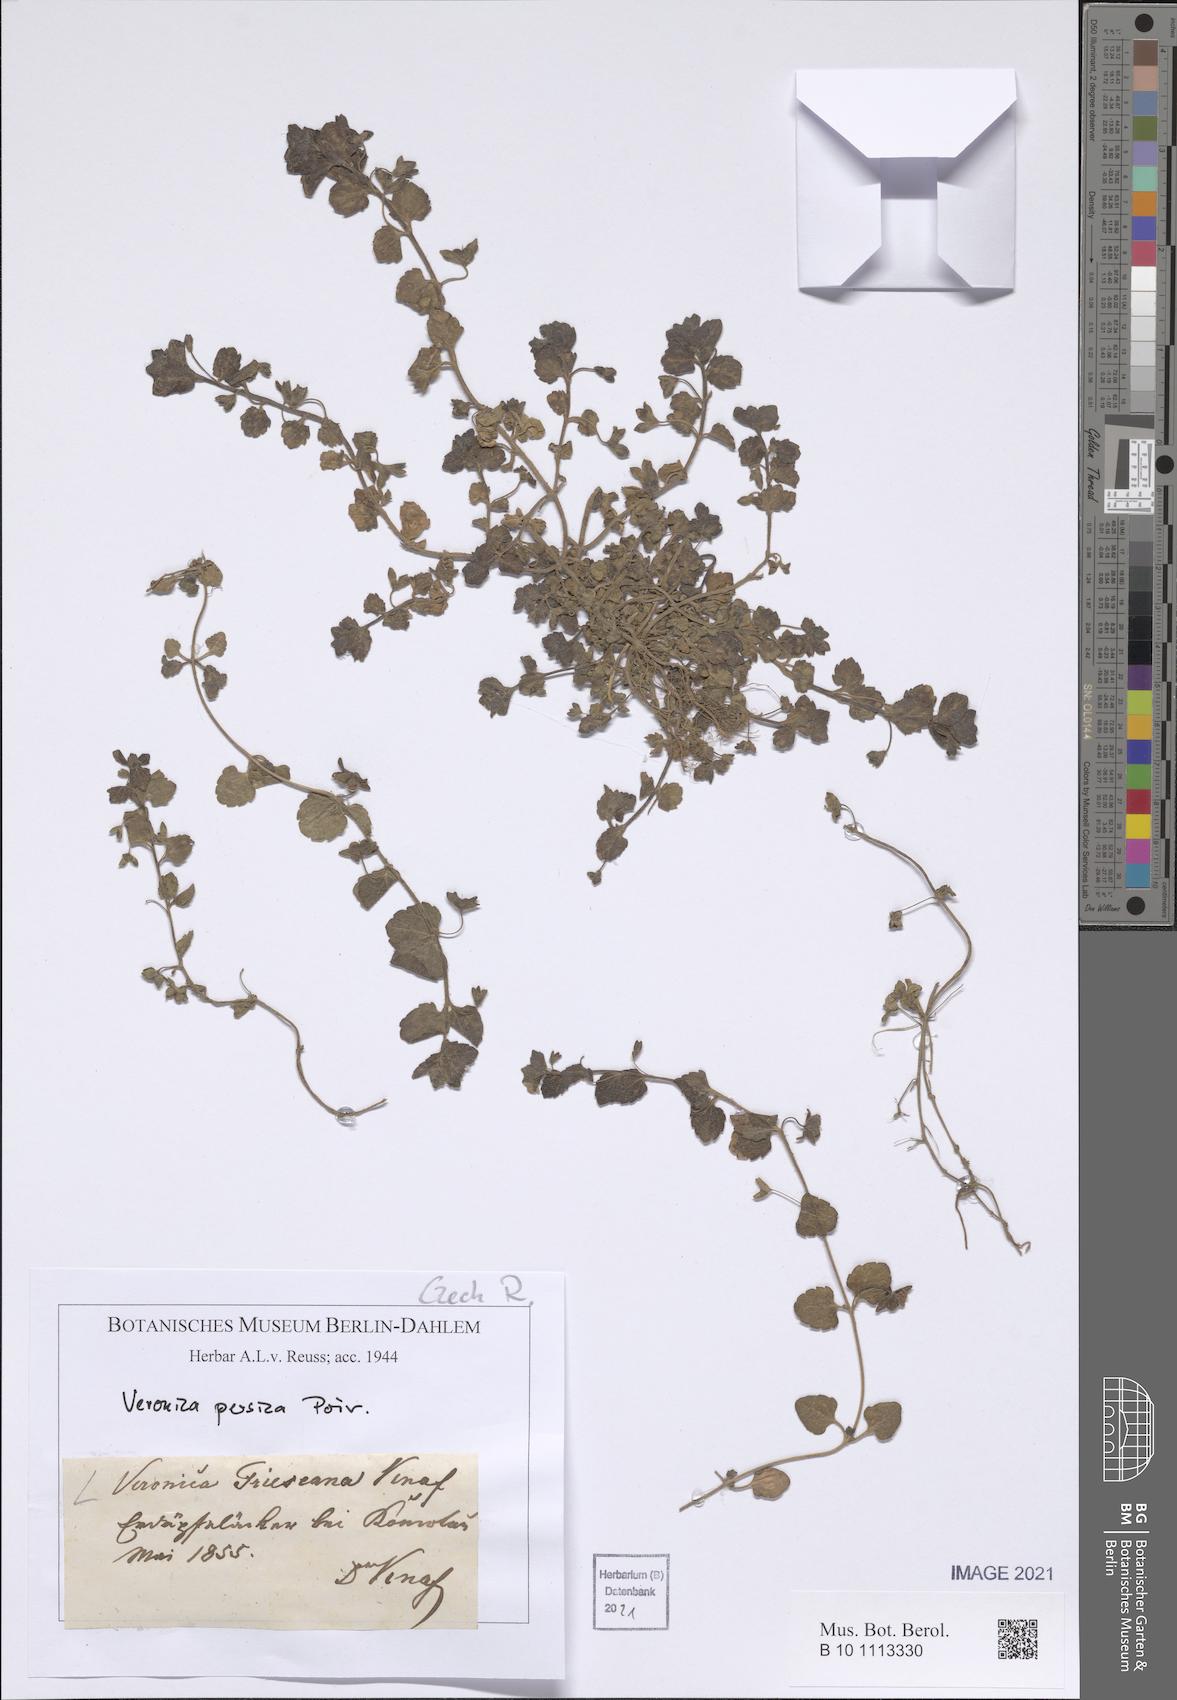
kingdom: Plantae
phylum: Tracheophyta
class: Magnoliopsida
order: Lamiales
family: Plantaginaceae
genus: Veronica
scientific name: Veronica persica
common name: Common field-speedwell
